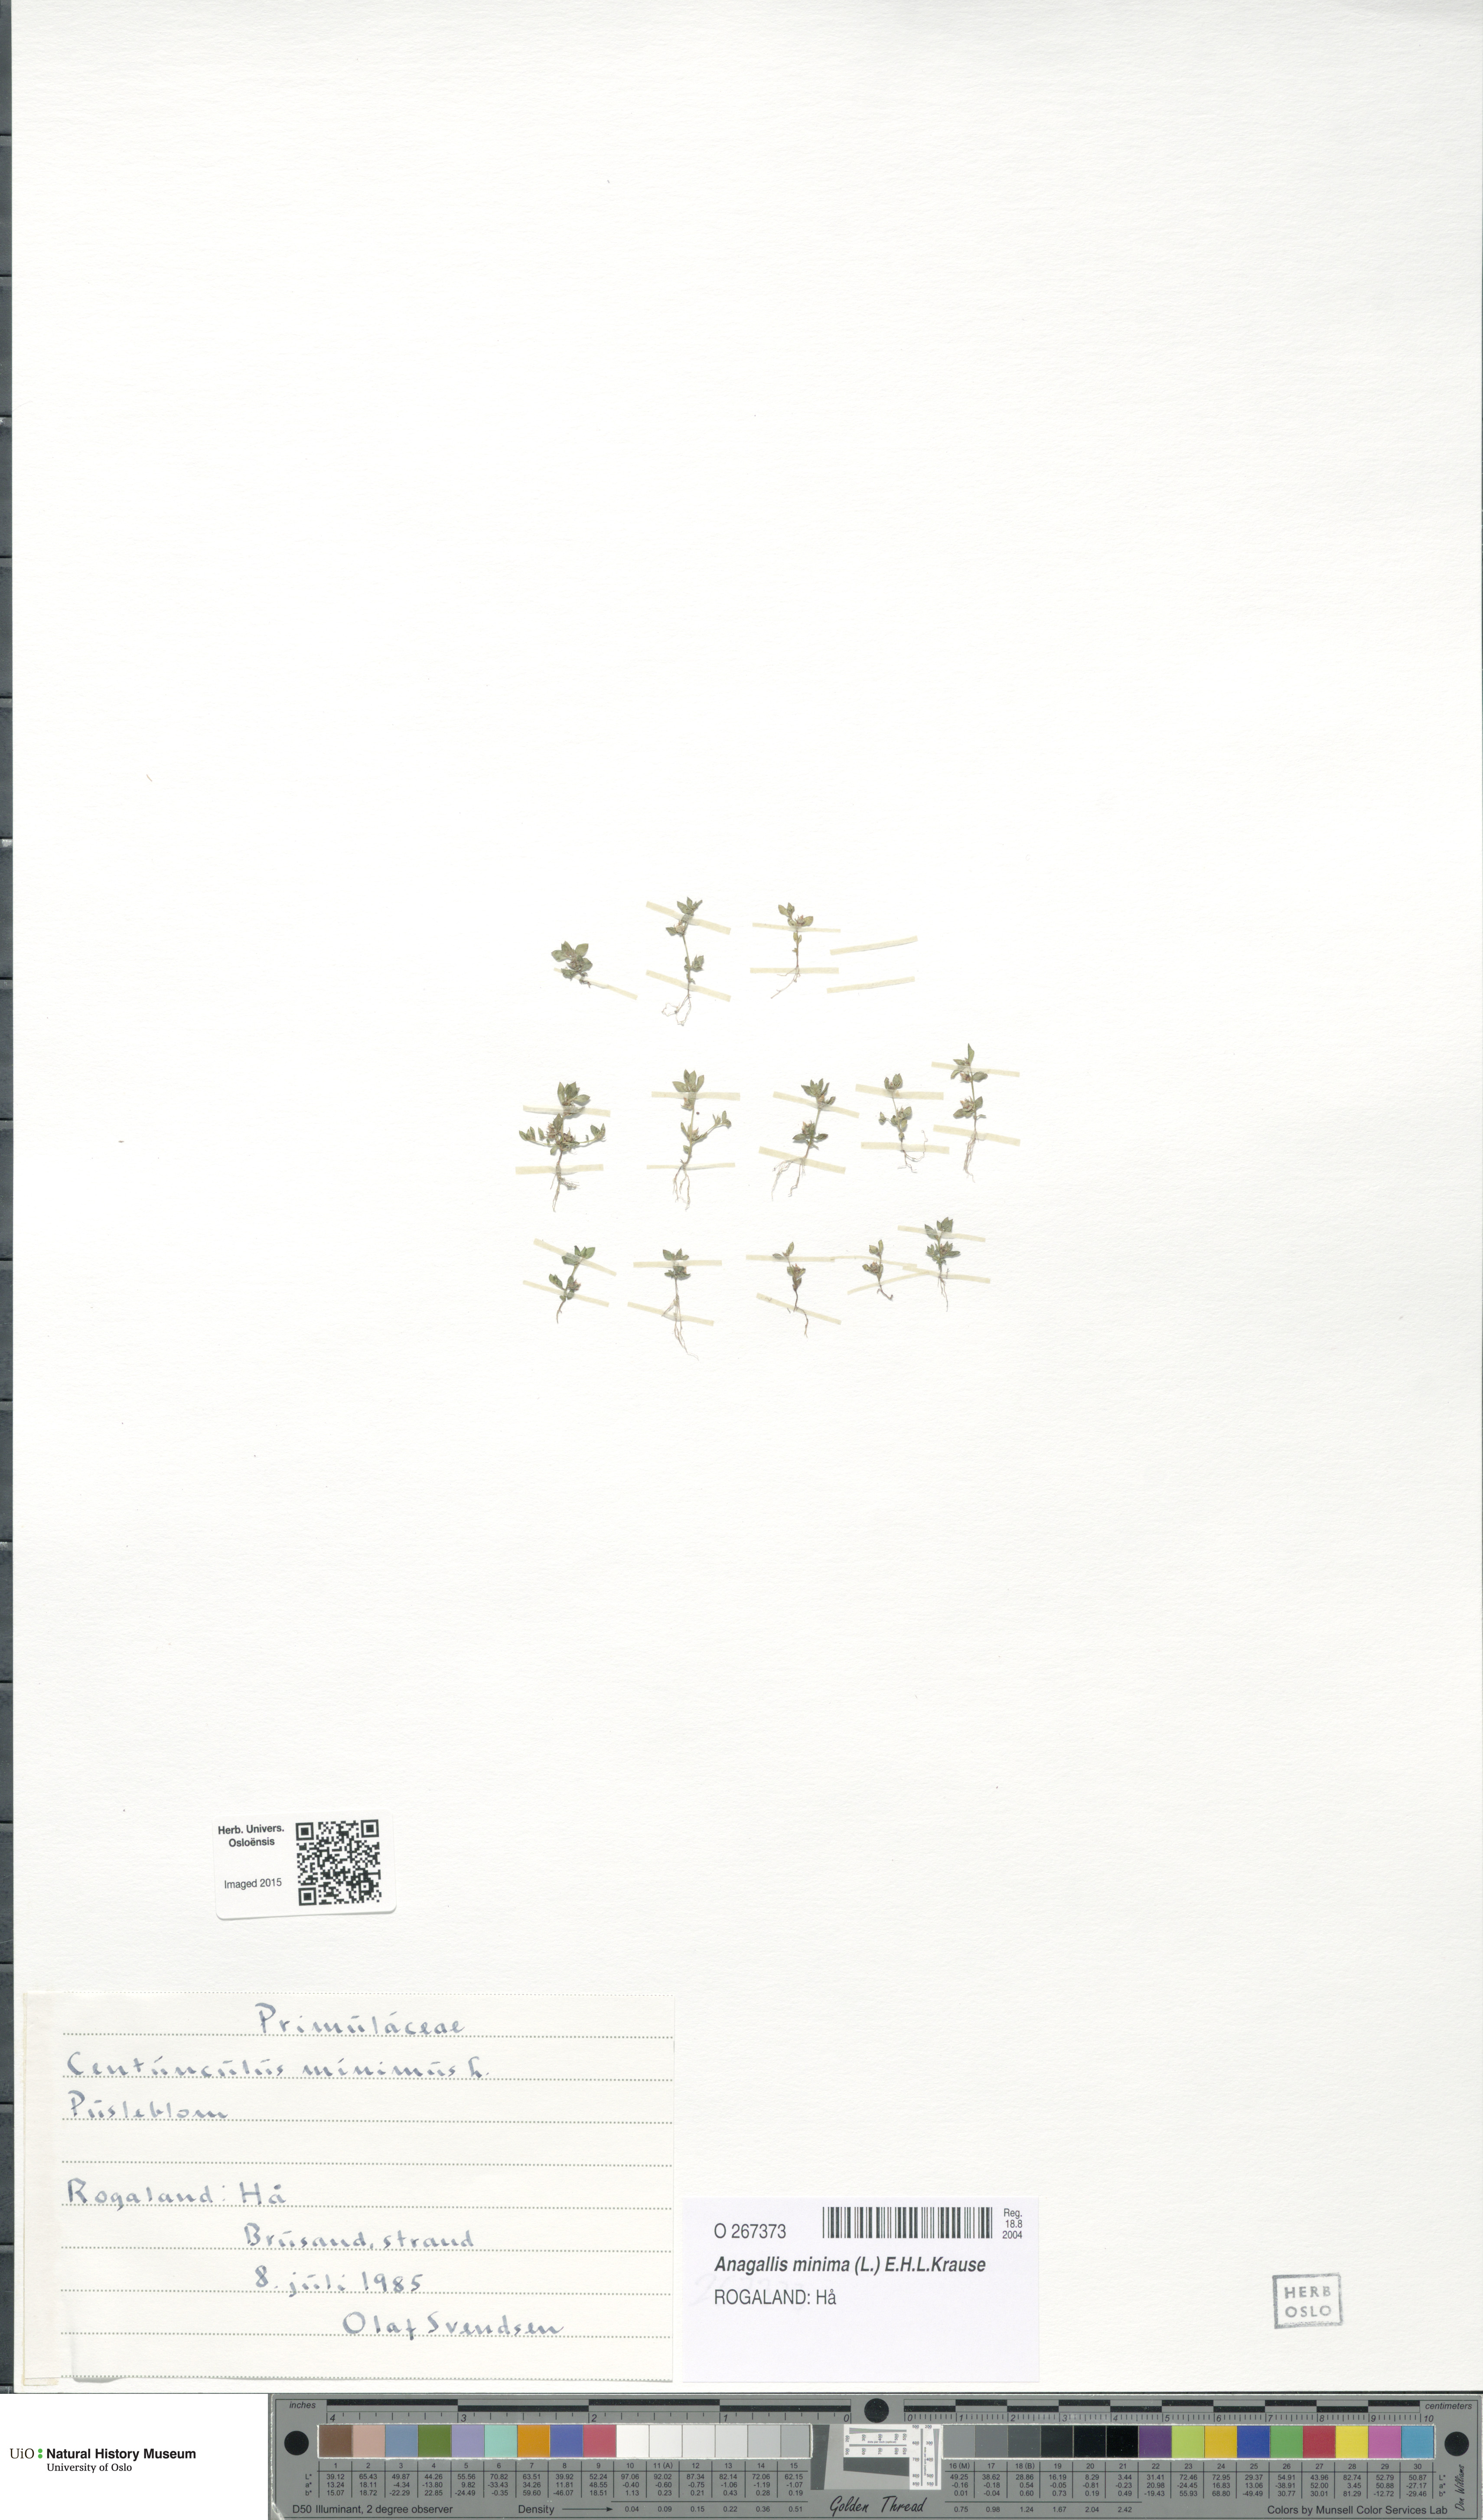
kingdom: Plantae
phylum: Tracheophyta
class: Magnoliopsida
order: Ericales
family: Primulaceae
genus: Lysimachia
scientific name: Lysimachia minima
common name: Chaffweed
